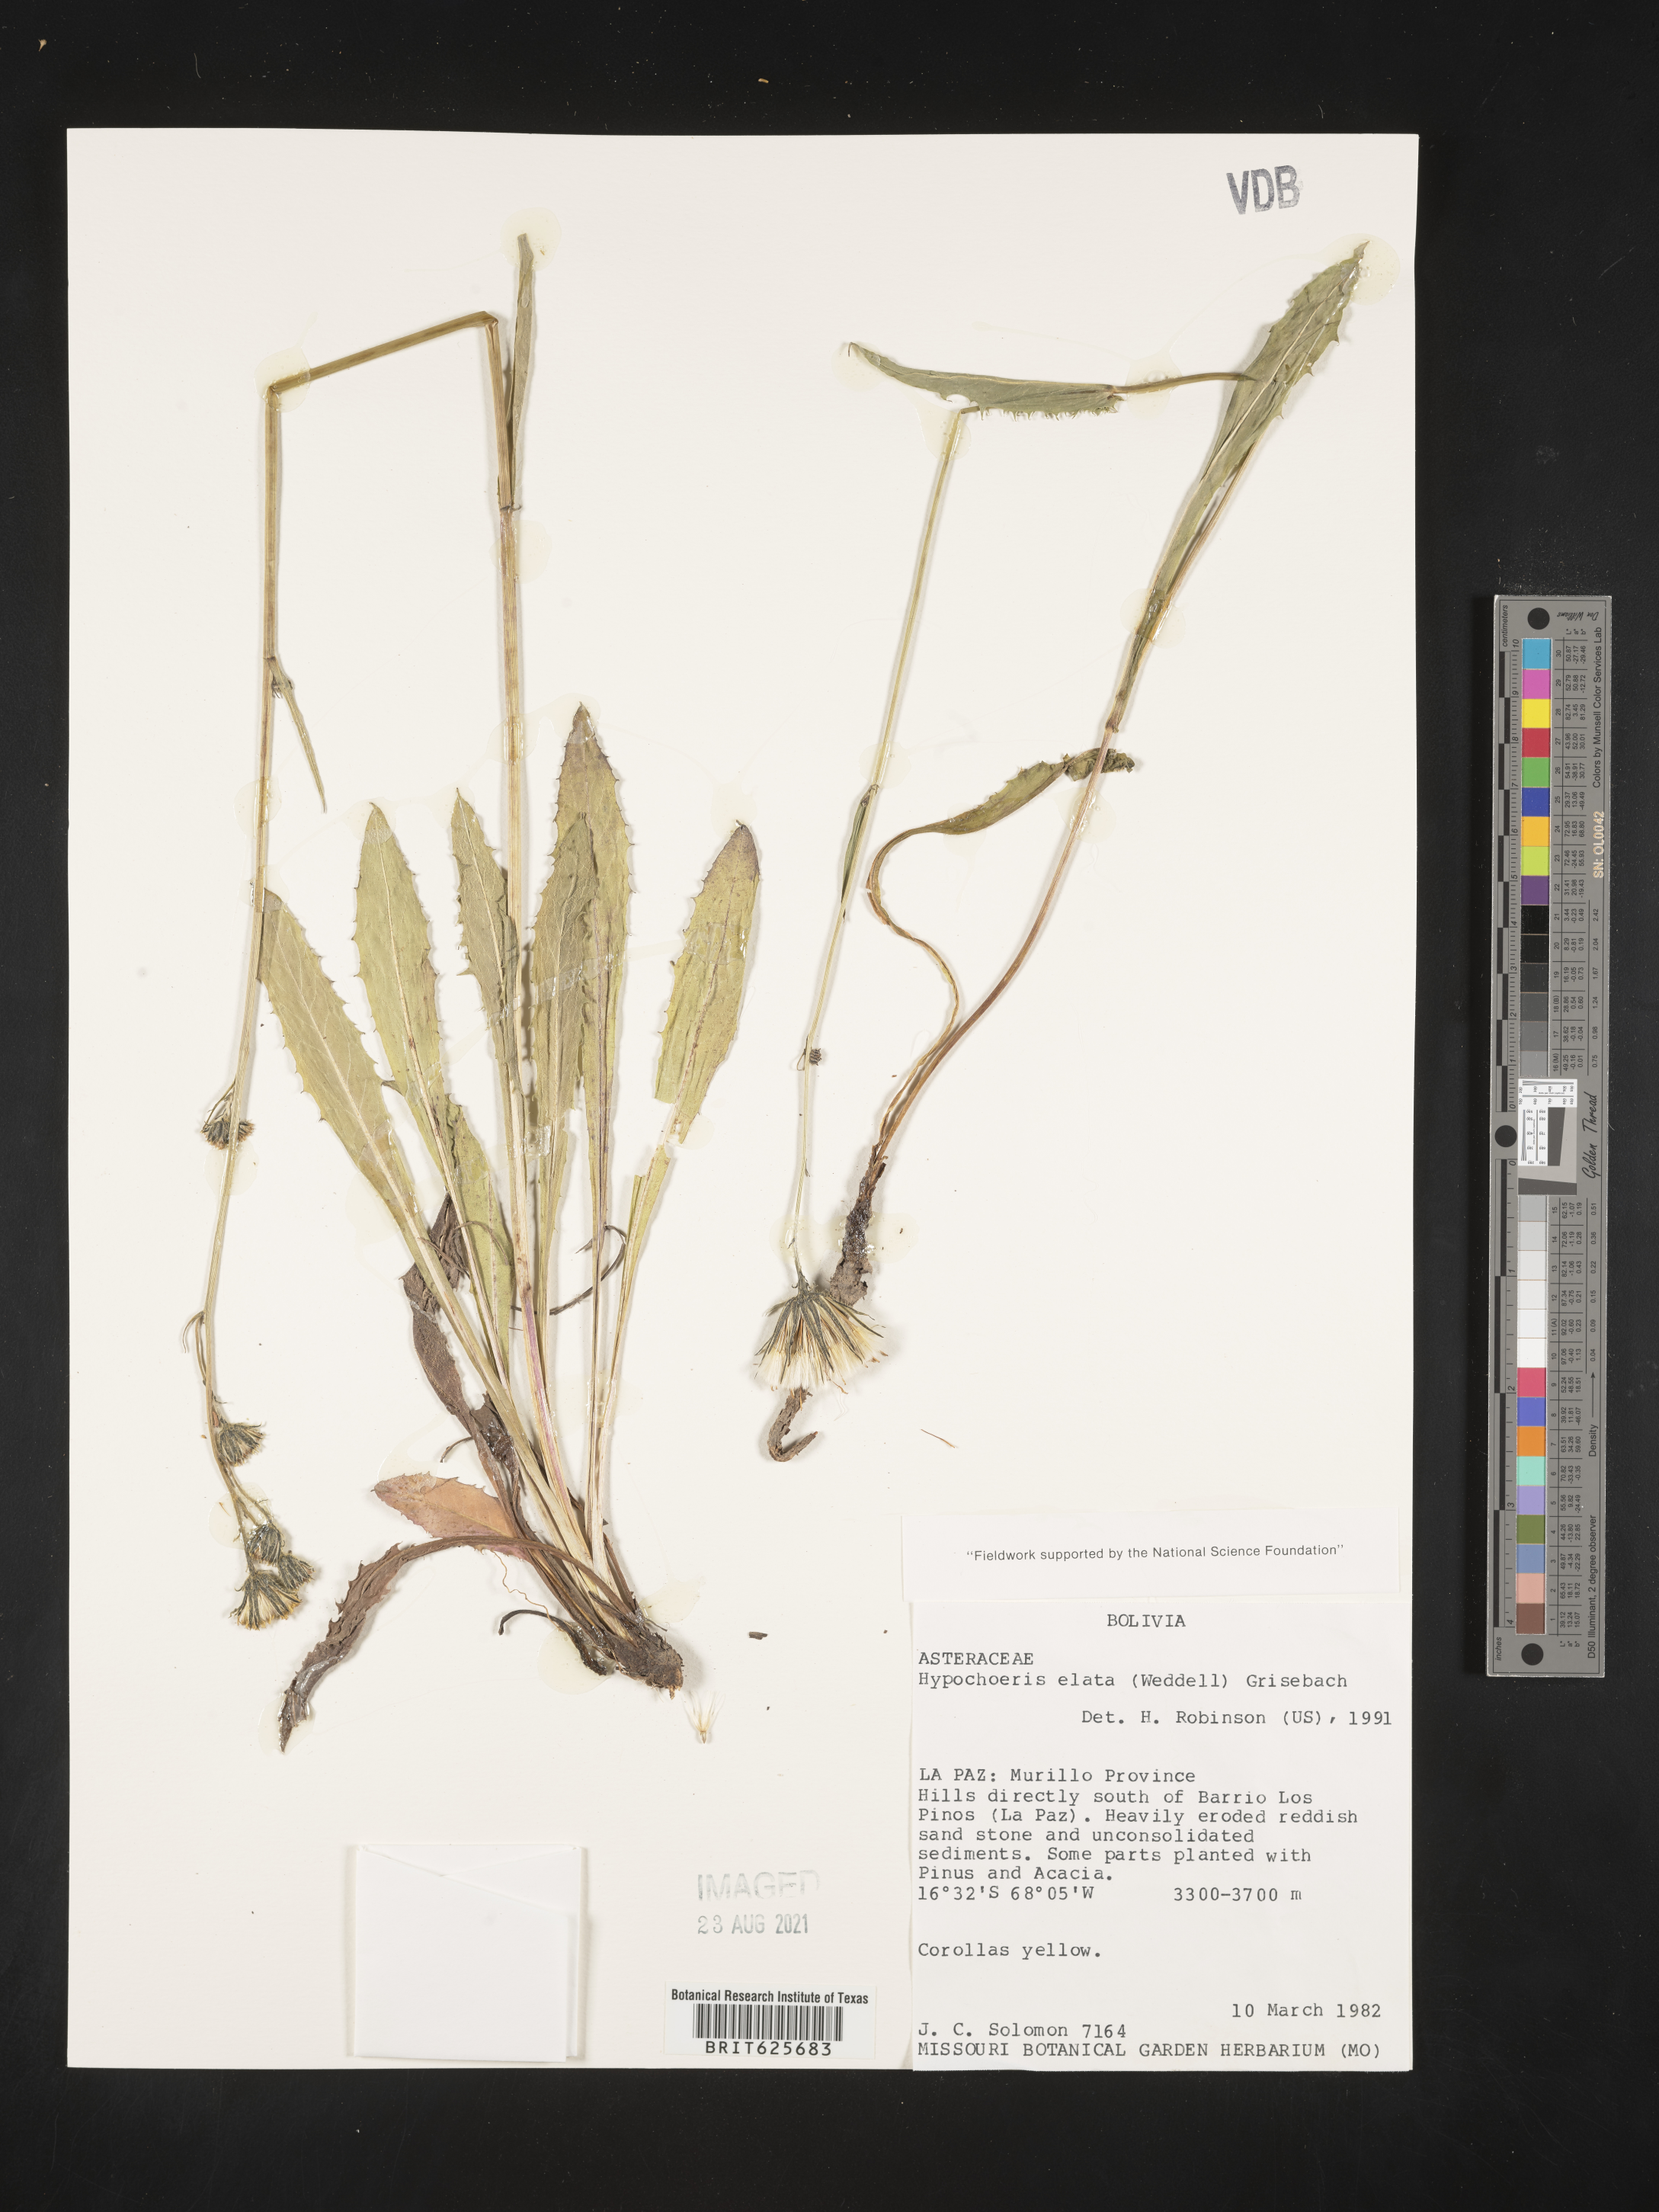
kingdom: Plantae
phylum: Tracheophyta
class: Magnoliopsida
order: Asterales
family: Asteraceae
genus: Hypochaeris
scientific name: Hypochaeris elata
